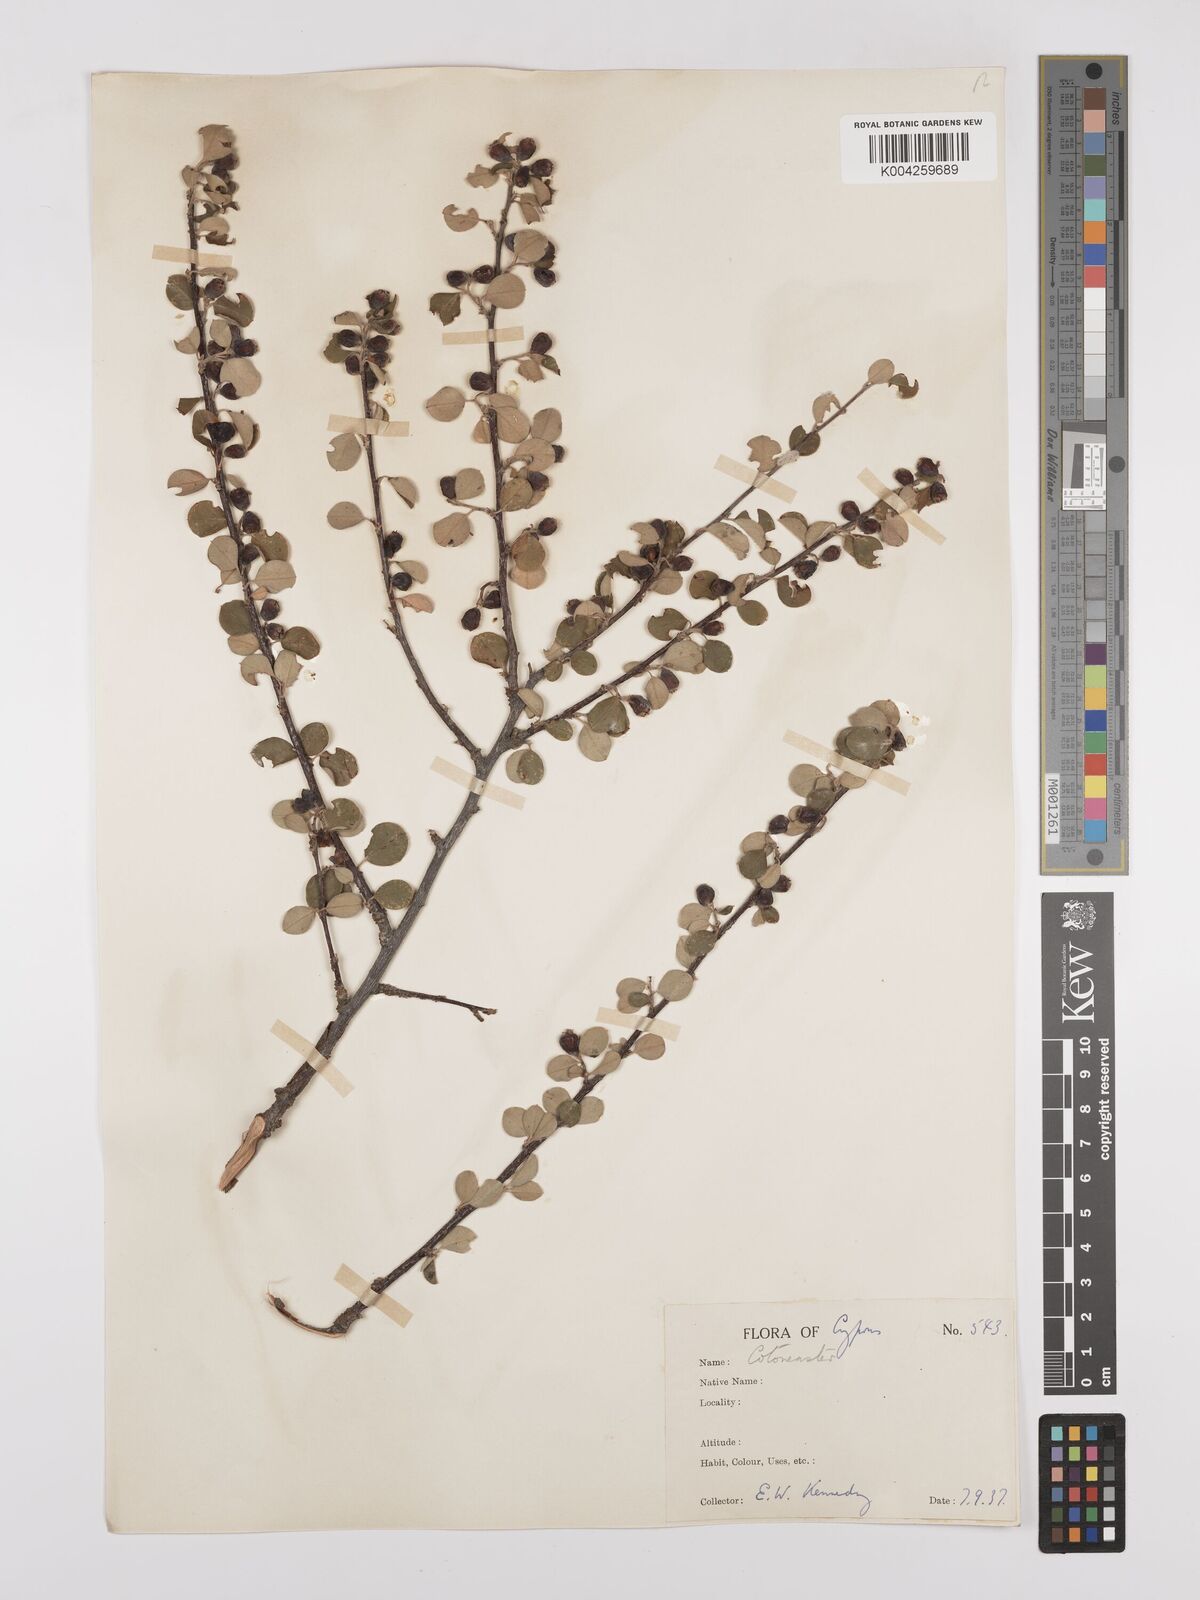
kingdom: Plantae
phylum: Tracheophyta
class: Magnoliopsida
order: Rosales
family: Rosaceae
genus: Cotoneaster
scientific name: Cotoneaster racemiflorus
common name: Cluster-flower cotoneaster
